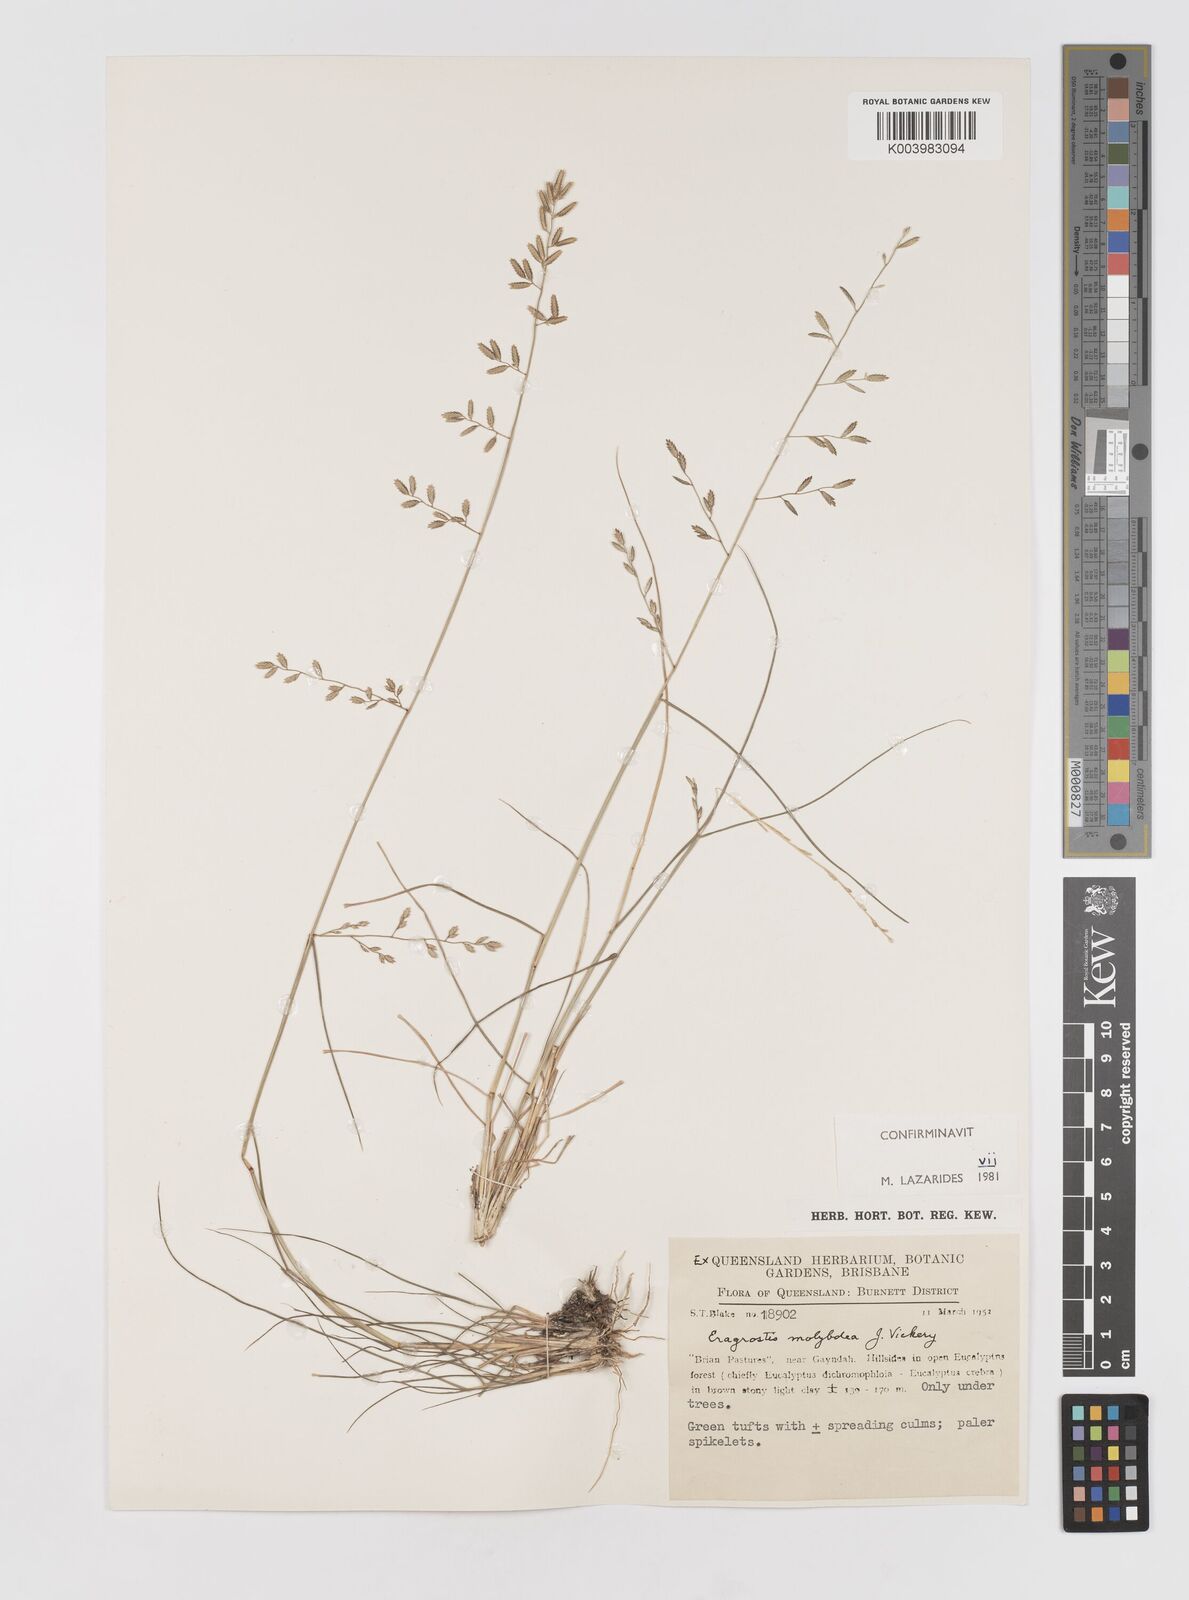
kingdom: Plantae
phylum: Tracheophyta
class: Liliopsida
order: Poales
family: Poaceae
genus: Eragrostis
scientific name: Eragrostis leptostachya
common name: Australian lovegrass
